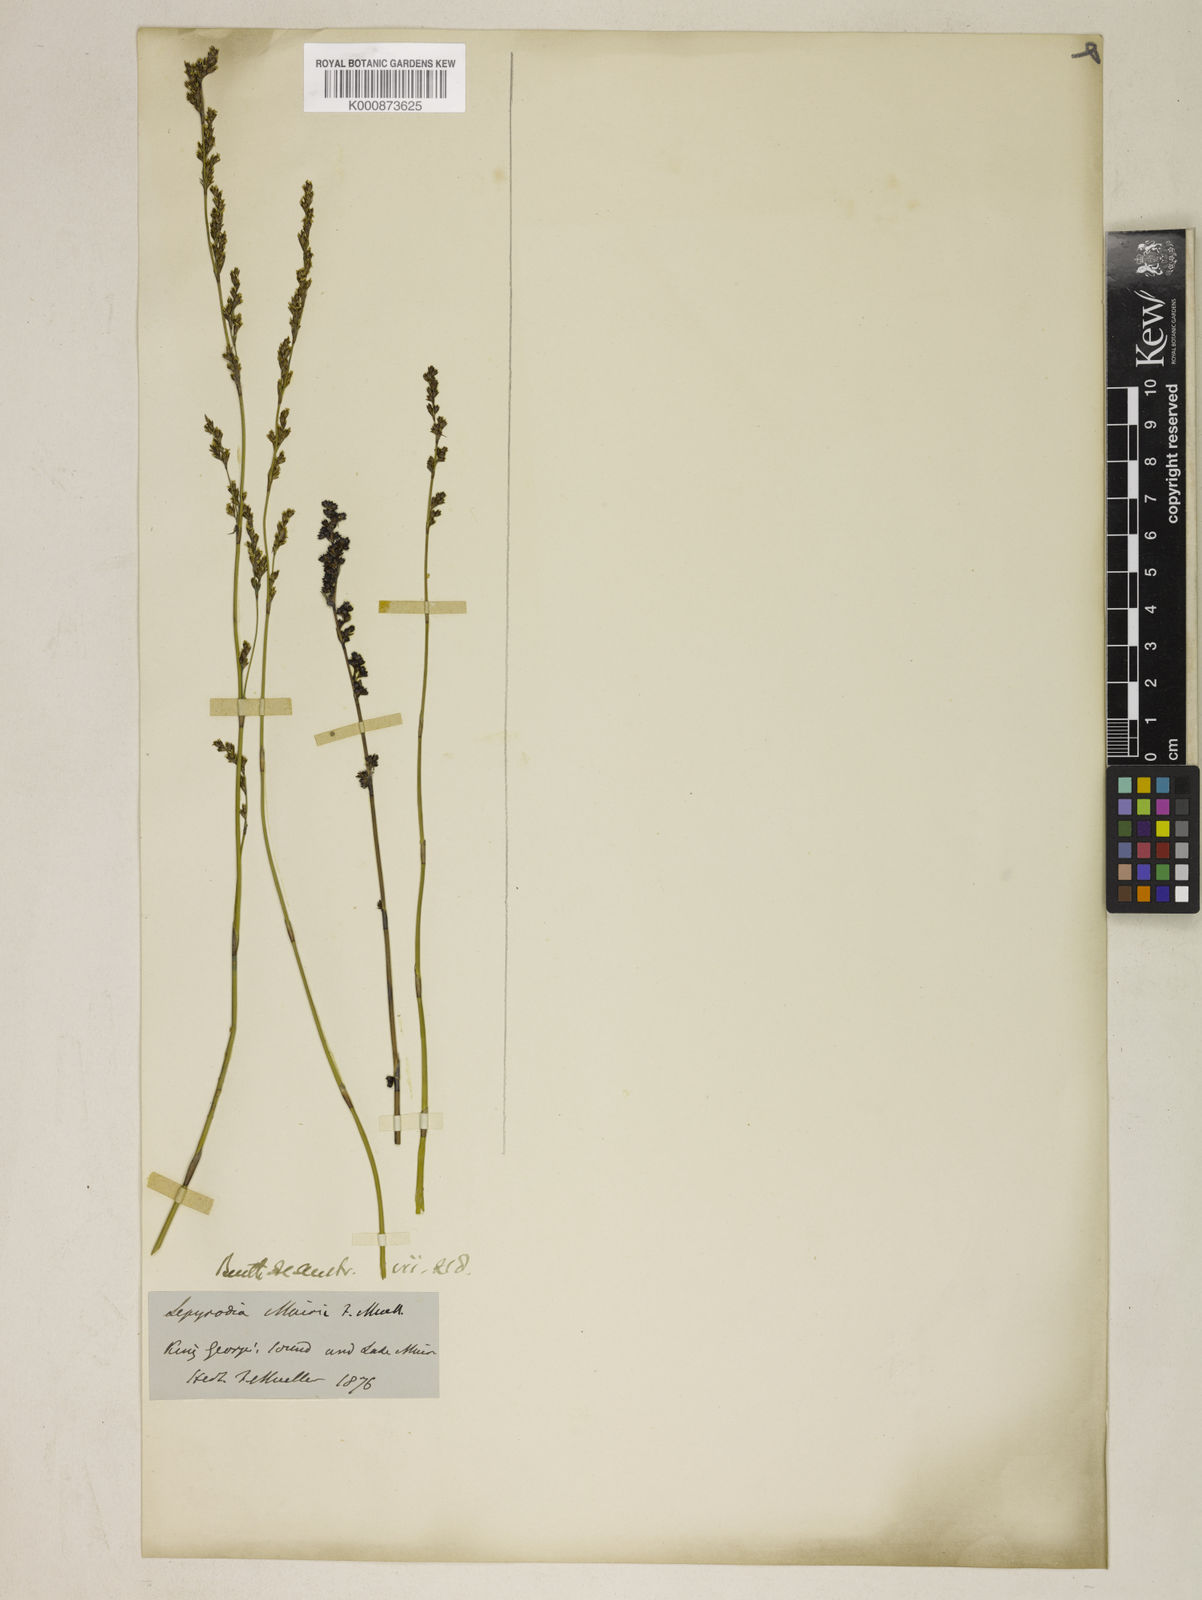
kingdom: Plantae
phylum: Tracheophyta
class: Liliopsida
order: Poales
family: Restionaceae
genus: Lepyrodia
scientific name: Lepyrodia muirii
